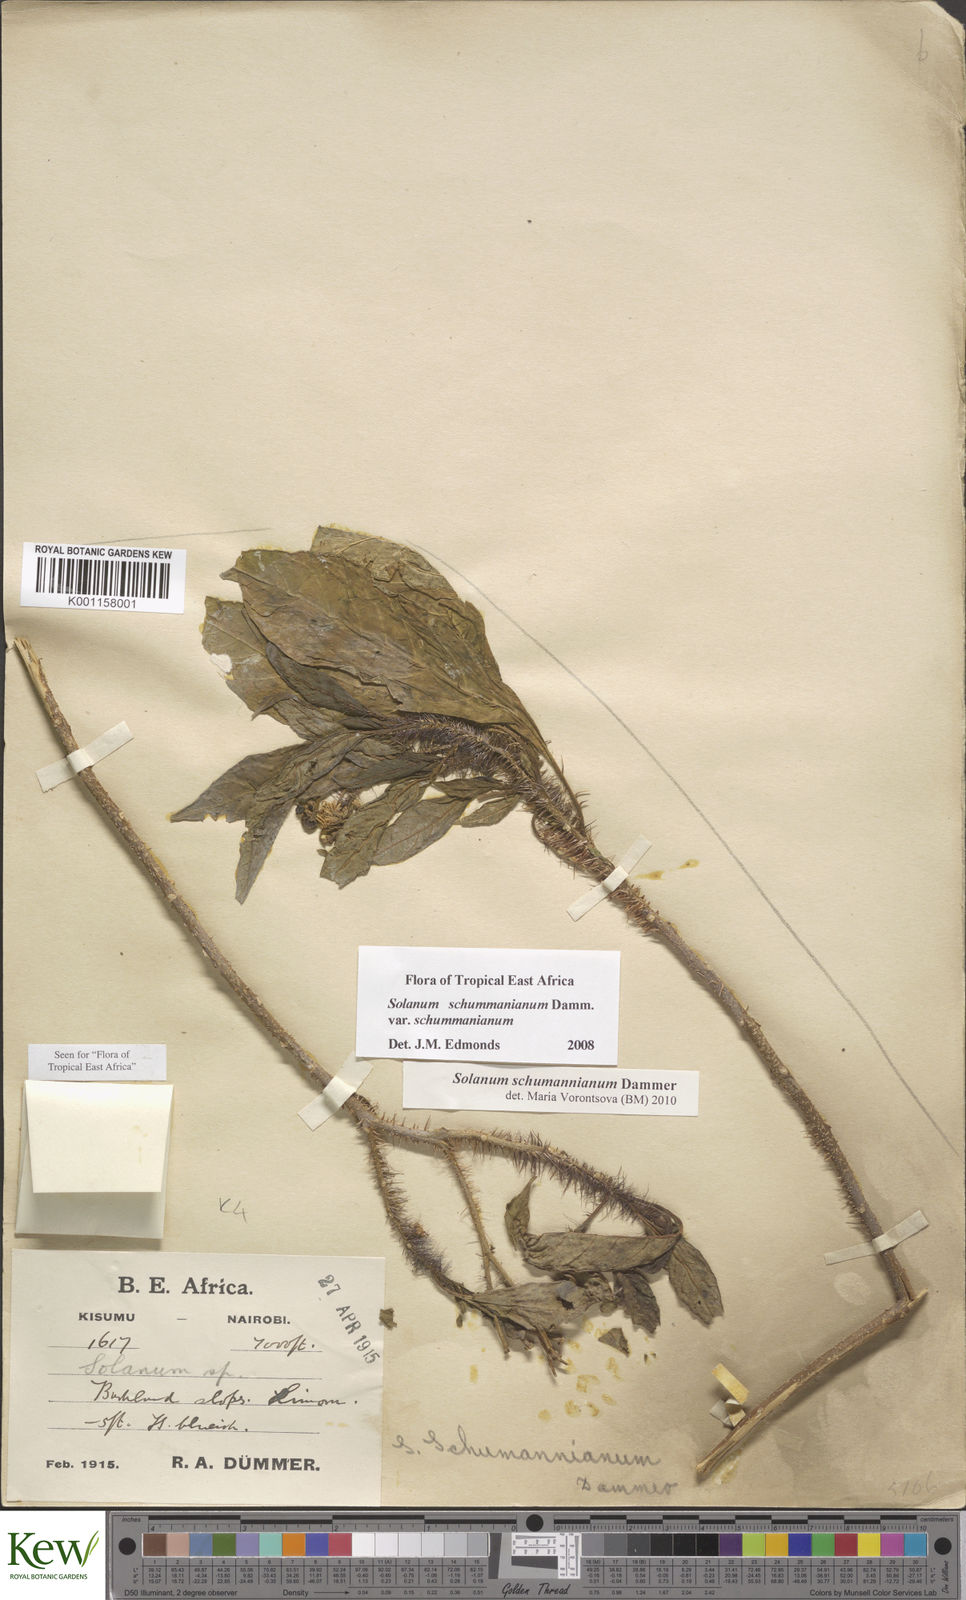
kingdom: Plantae
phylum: Tracheophyta
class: Magnoliopsida
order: Solanales
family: Solanaceae
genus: Solanum
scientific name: Solanum schumannianum
